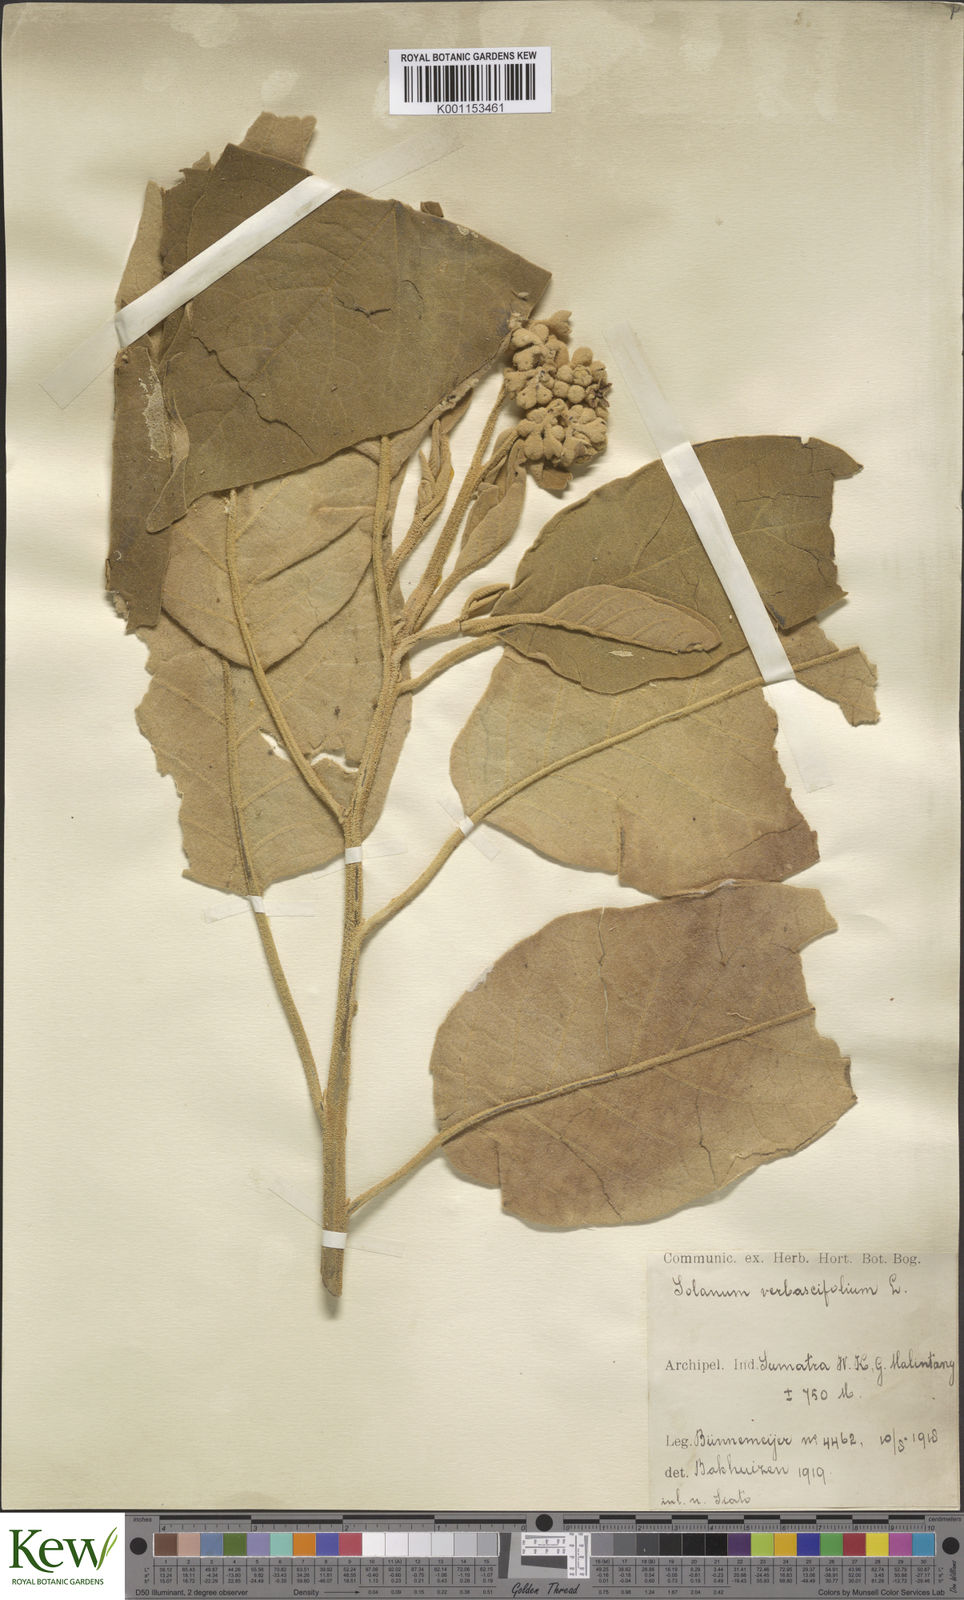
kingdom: Plantae
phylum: Tracheophyta
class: Magnoliopsida
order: Solanales
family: Solanaceae
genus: Solanum
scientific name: Solanum donianum
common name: Mullein nightshade
